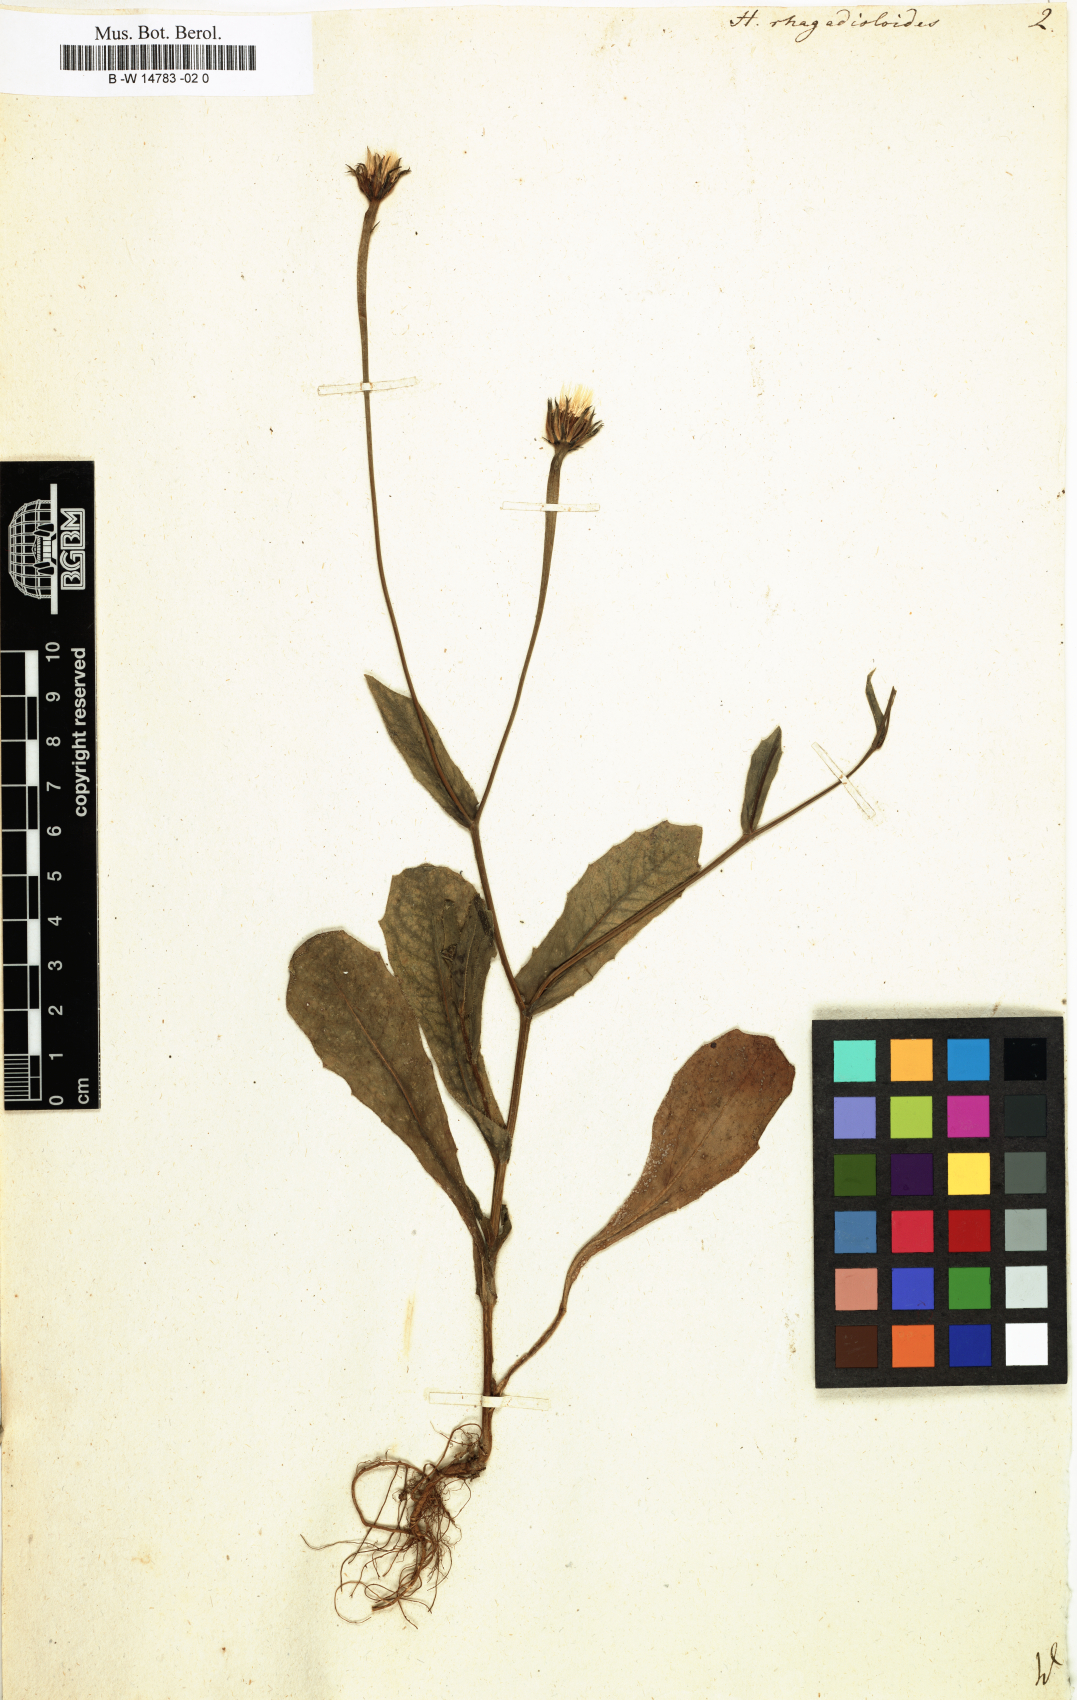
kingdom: Plantae
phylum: Tracheophyta
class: Magnoliopsida
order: Asterales
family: Asteraceae
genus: Hedypnois
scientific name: Hedypnois rhagadioloides
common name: Cretan weed
